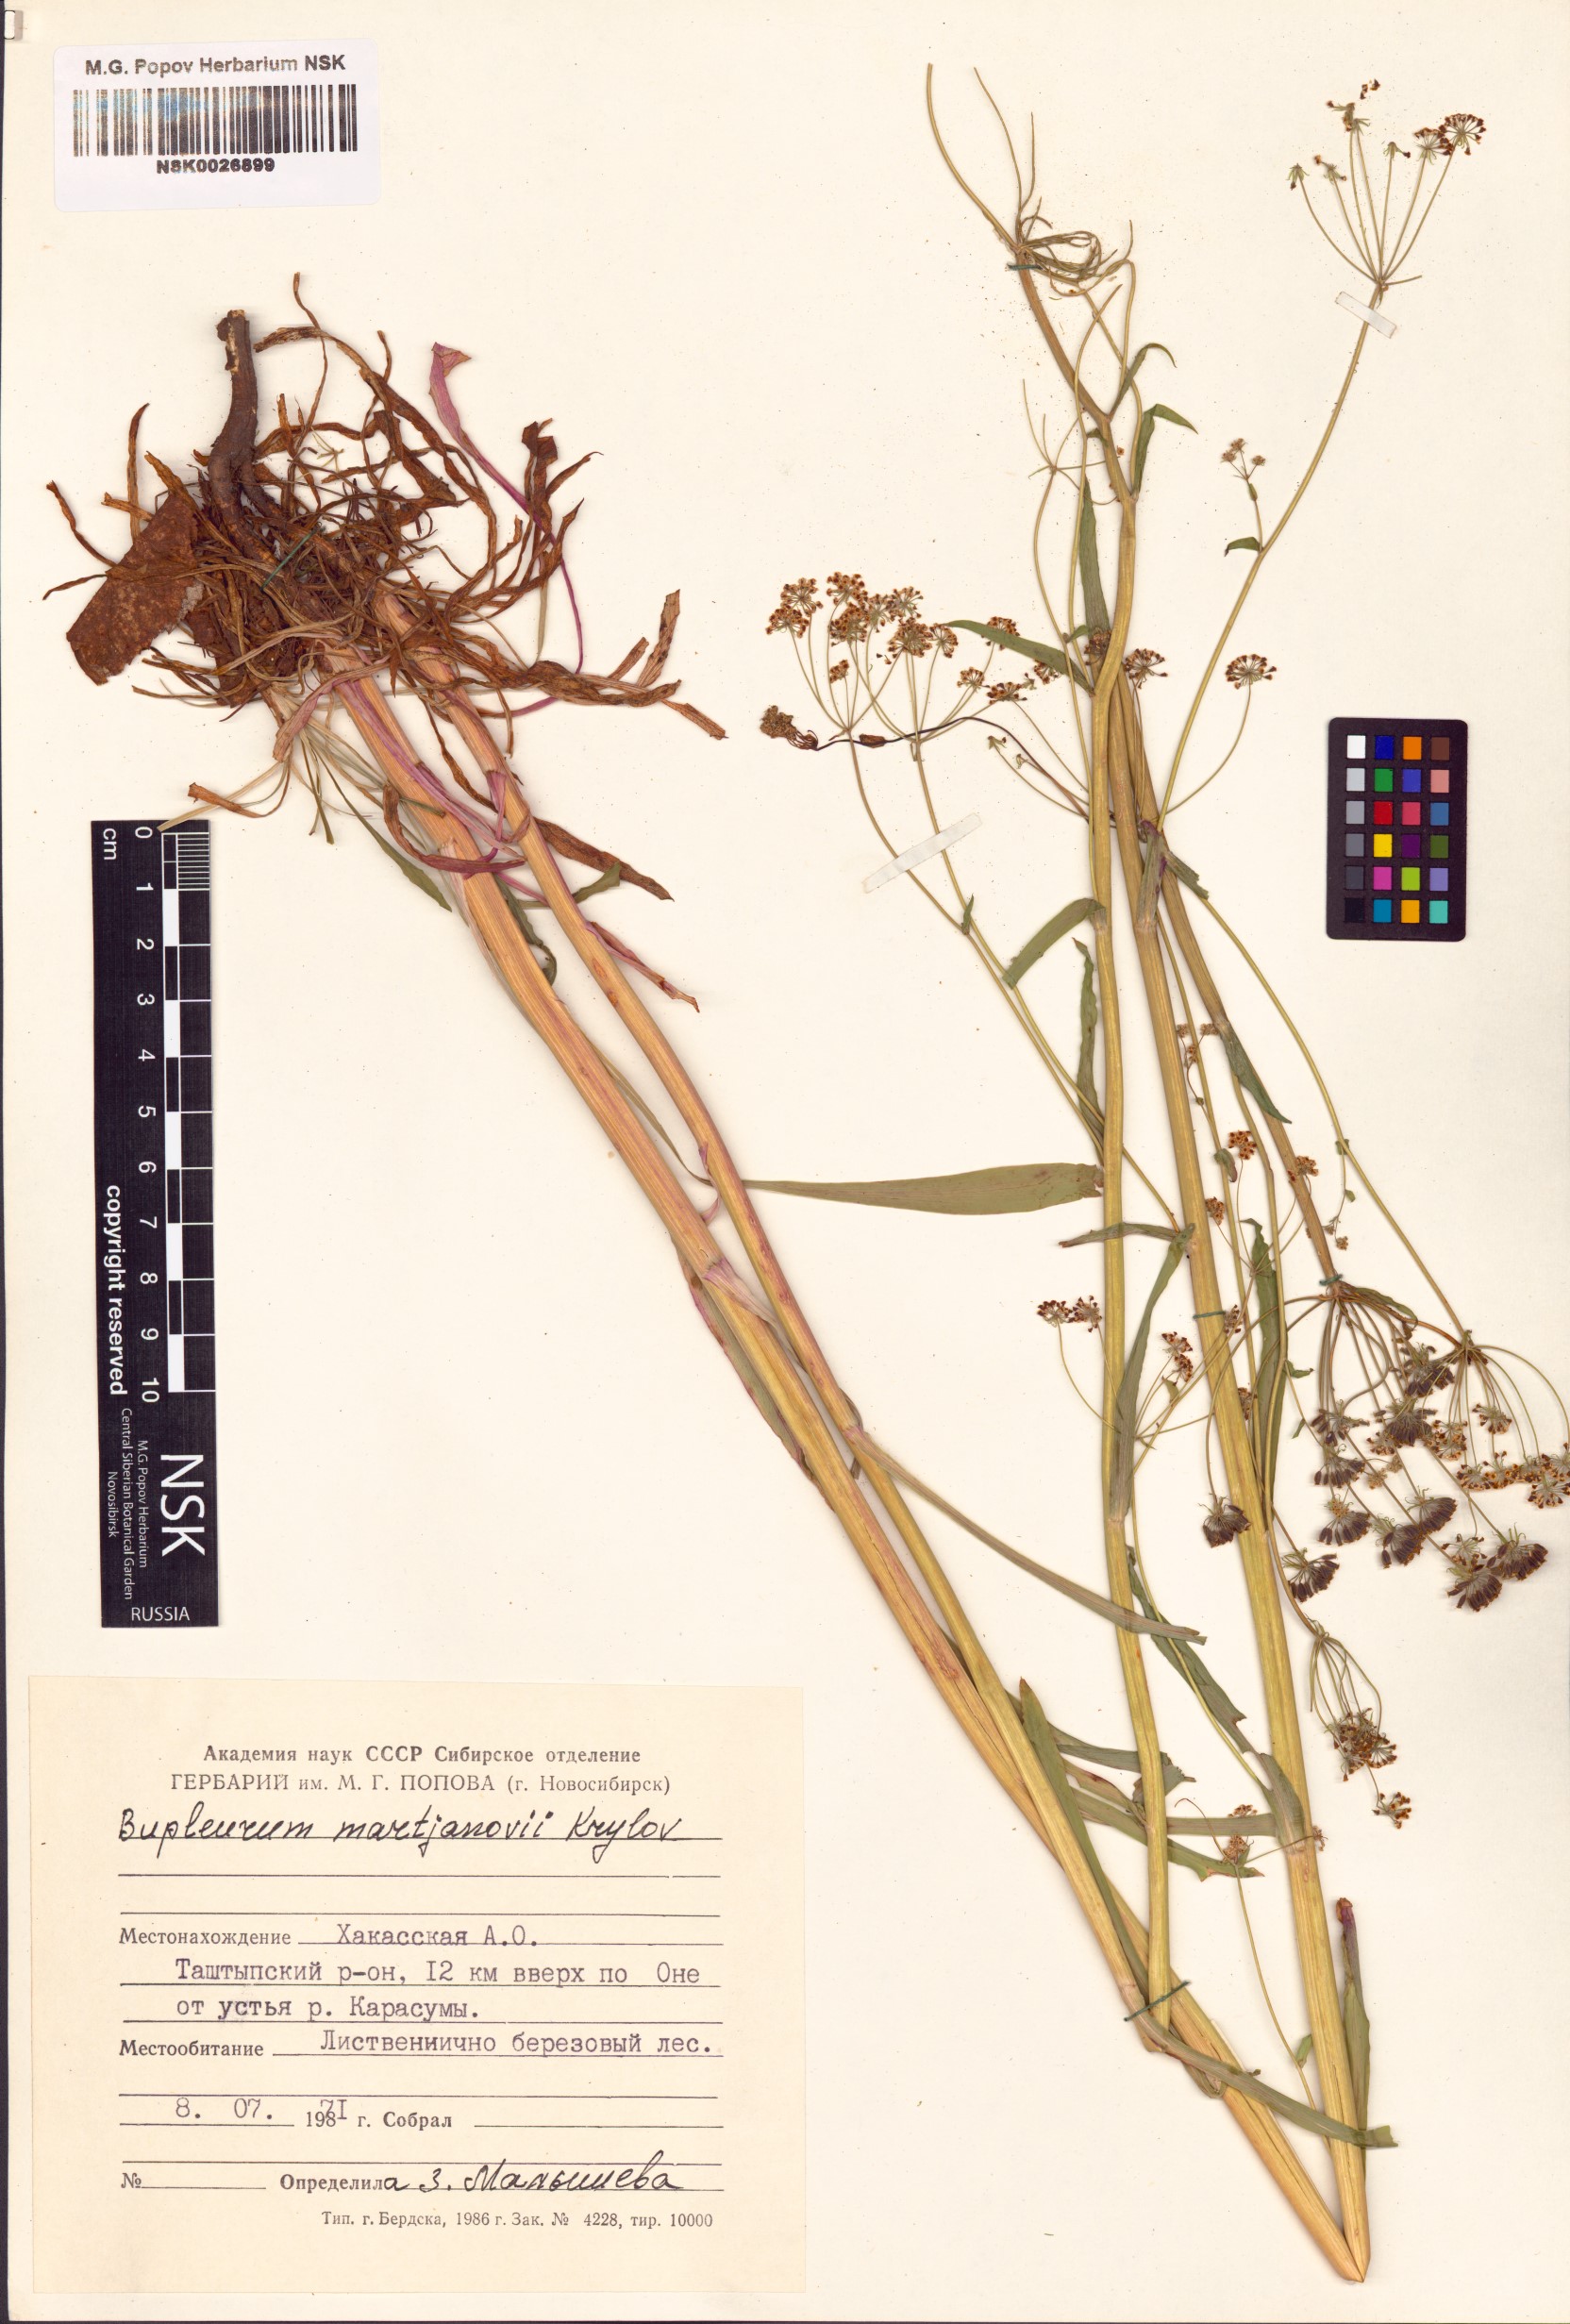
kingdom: Plantae
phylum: Tracheophyta
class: Magnoliopsida
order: Apiales
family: Apiaceae
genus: Bupleurum
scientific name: Bupleurum martjanovii
